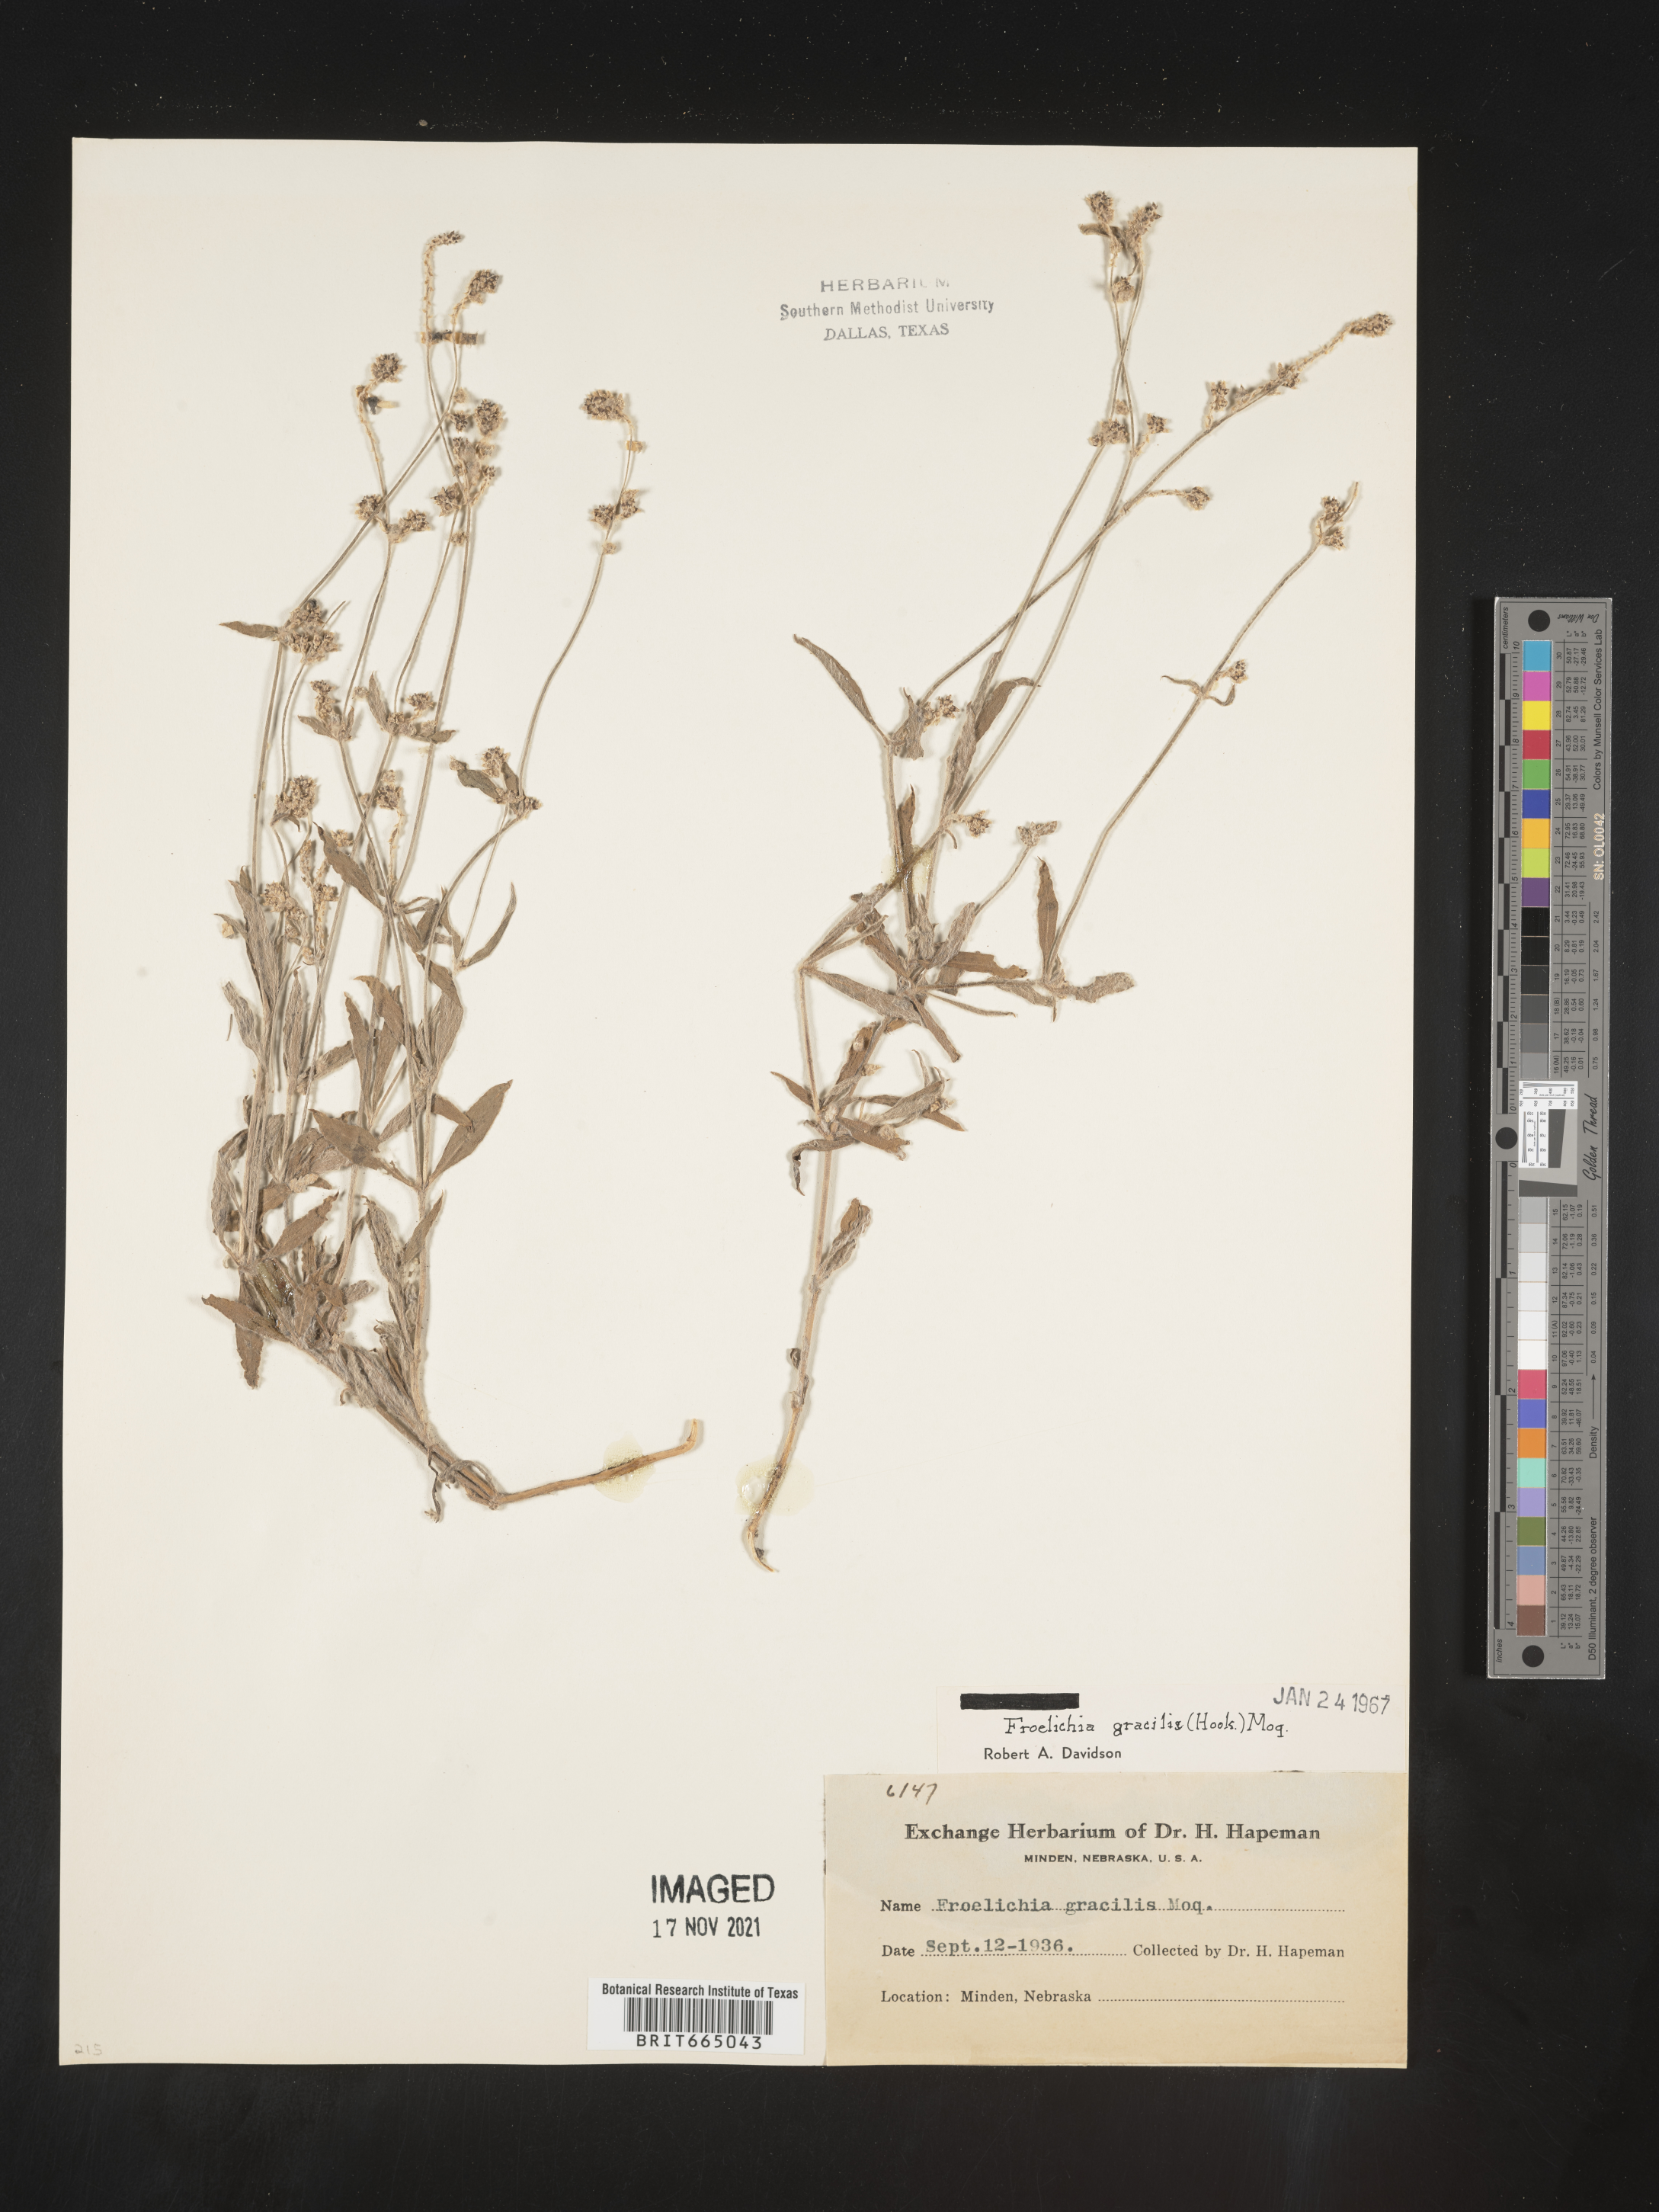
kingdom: Plantae
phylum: Tracheophyta
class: Magnoliopsida
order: Caryophyllales
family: Amaranthaceae
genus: Froelichia
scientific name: Froelichia gracilis
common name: Slender cottonweed
